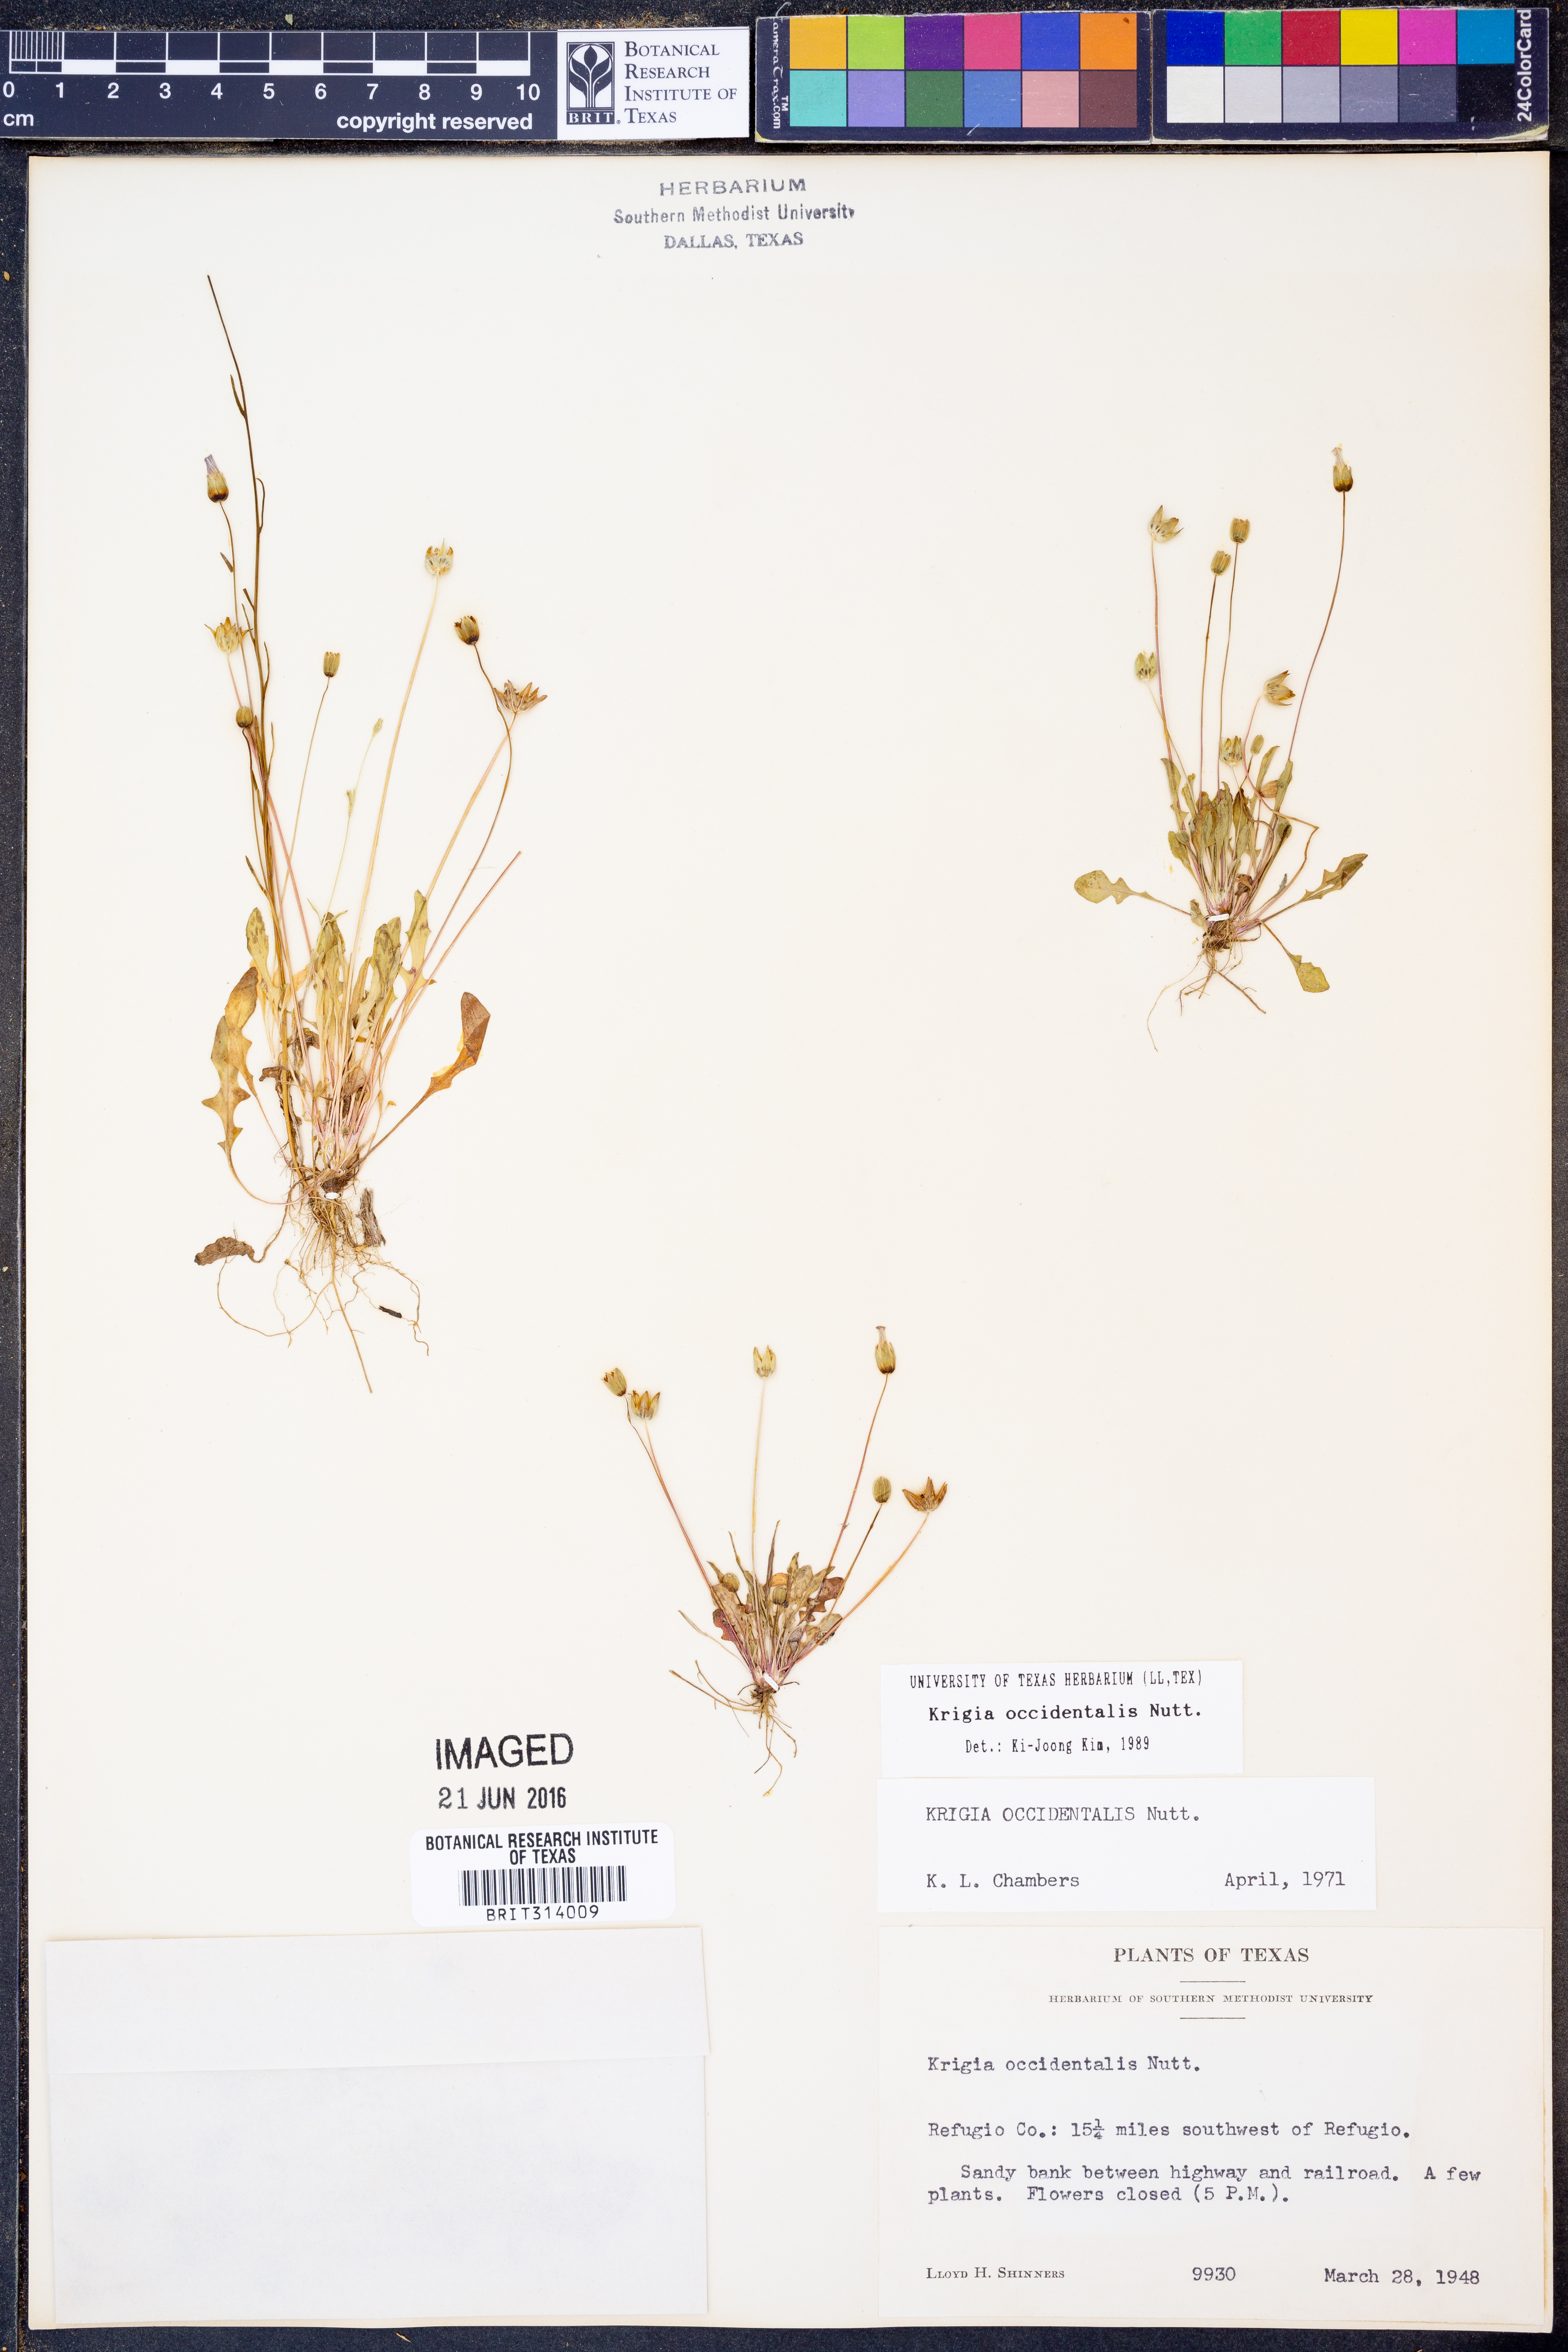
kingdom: Plantae
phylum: Tracheophyta
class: Magnoliopsida
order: Asterales
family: Asteraceae
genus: Krigia
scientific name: Krigia occidentalis
